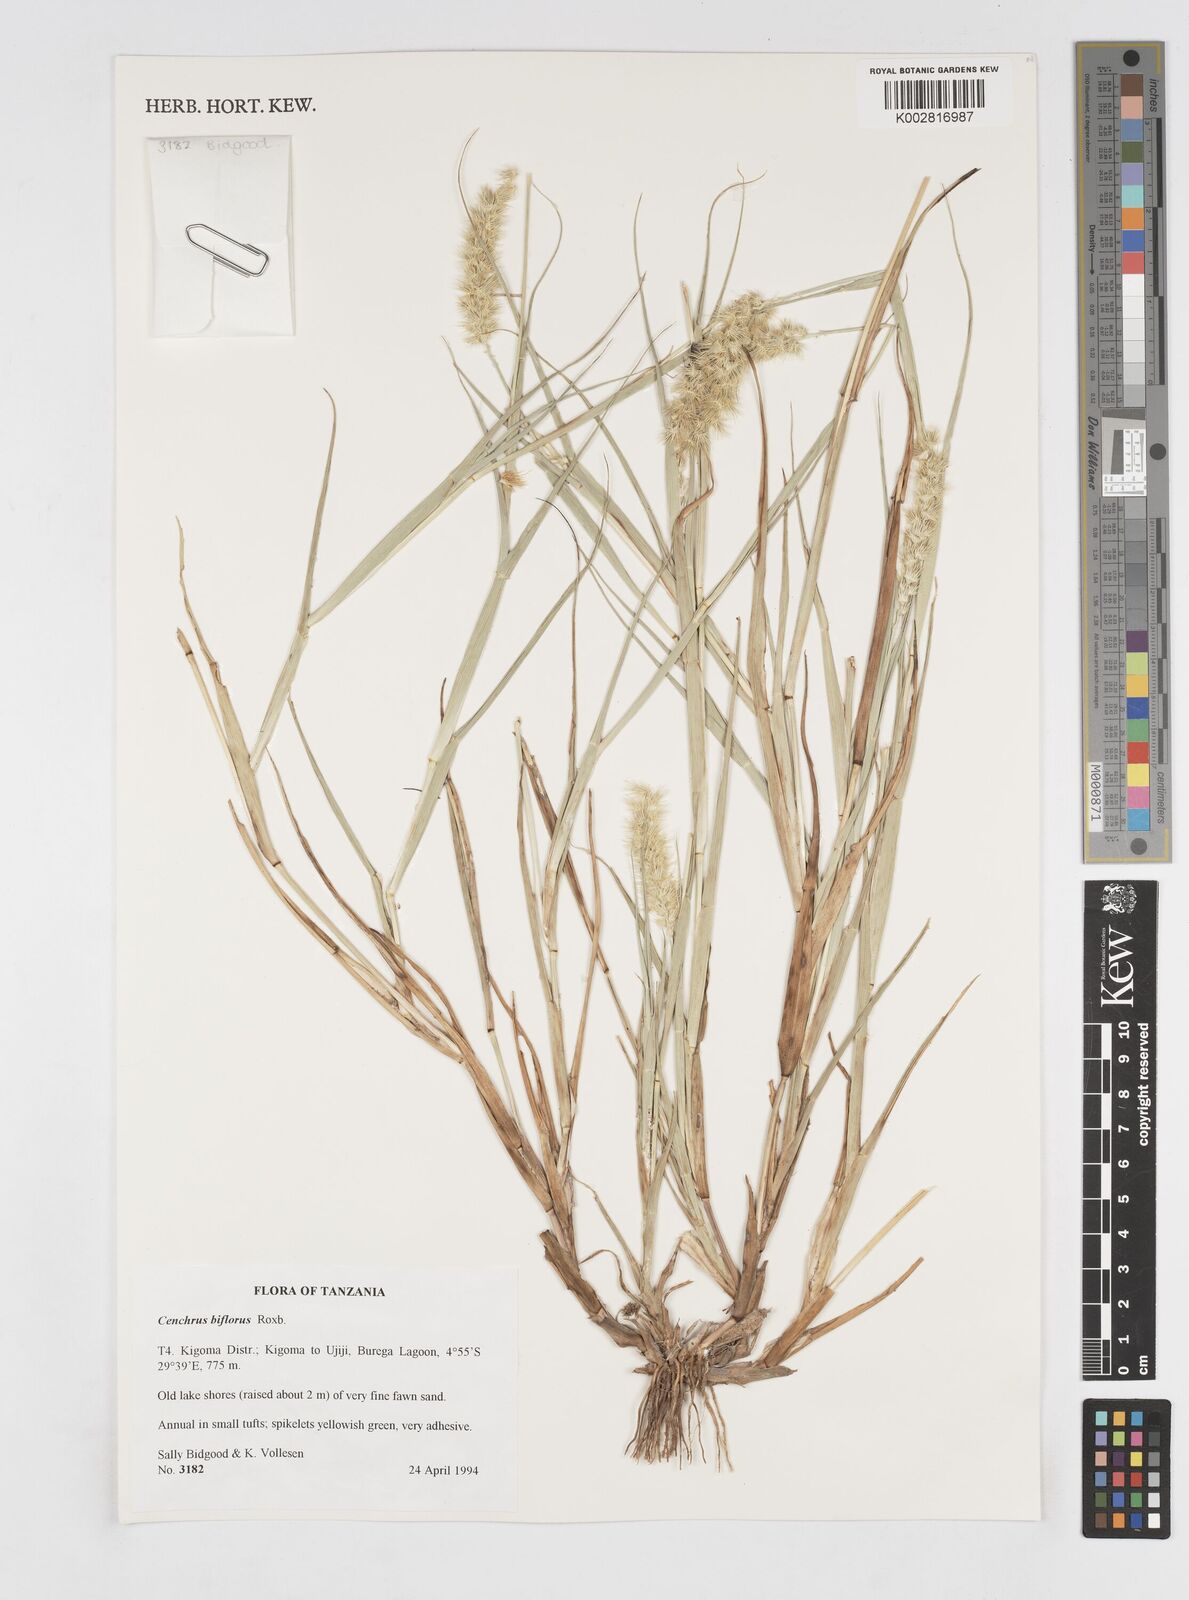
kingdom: Plantae
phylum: Tracheophyta
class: Liliopsida
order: Poales
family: Poaceae
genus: Cenchrus
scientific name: Cenchrus biflorus
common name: Indian sandbur
